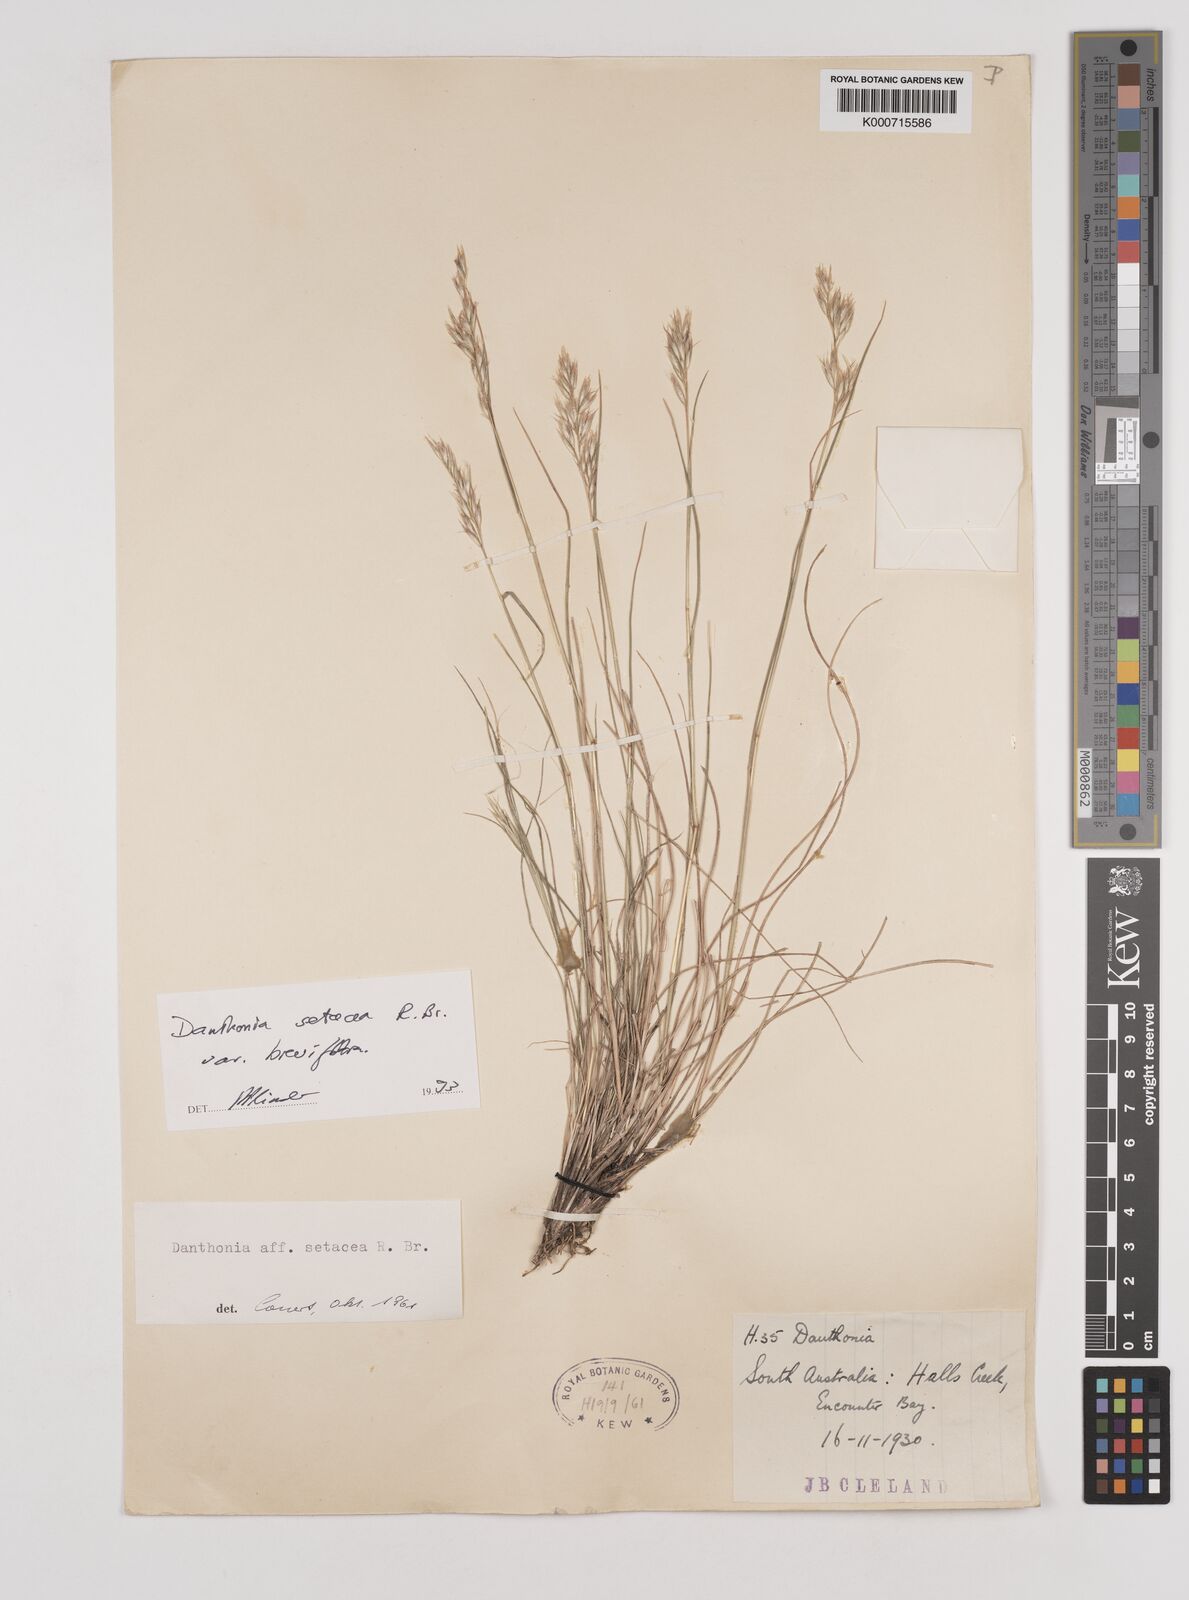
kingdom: Plantae
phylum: Tracheophyta
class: Liliopsida
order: Poales
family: Poaceae
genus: Rytidosperma
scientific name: Rytidosperma setaceum
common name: Small-flower wallaby grass
